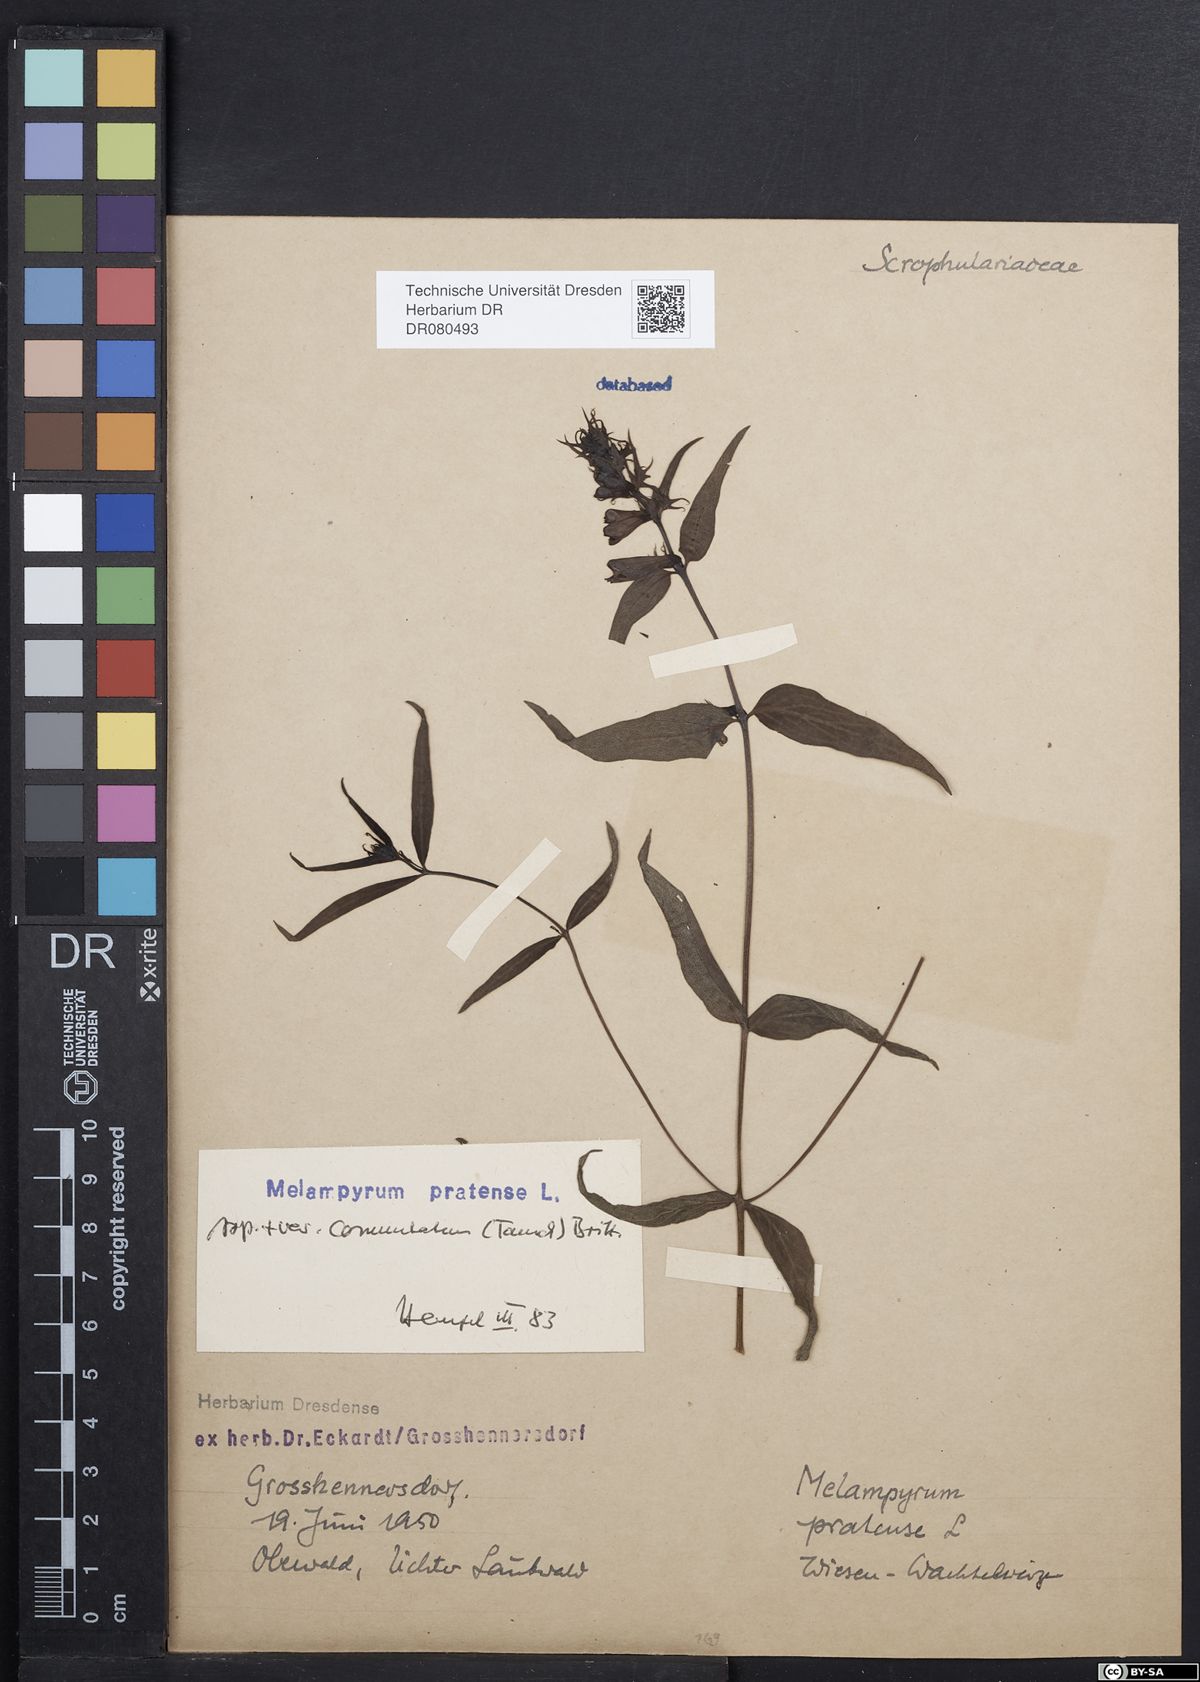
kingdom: Plantae
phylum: Tracheophyta
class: Magnoliopsida
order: Lamiales
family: Orobanchaceae
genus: Melampyrum
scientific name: Melampyrum pratense
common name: Common cow-wheat
